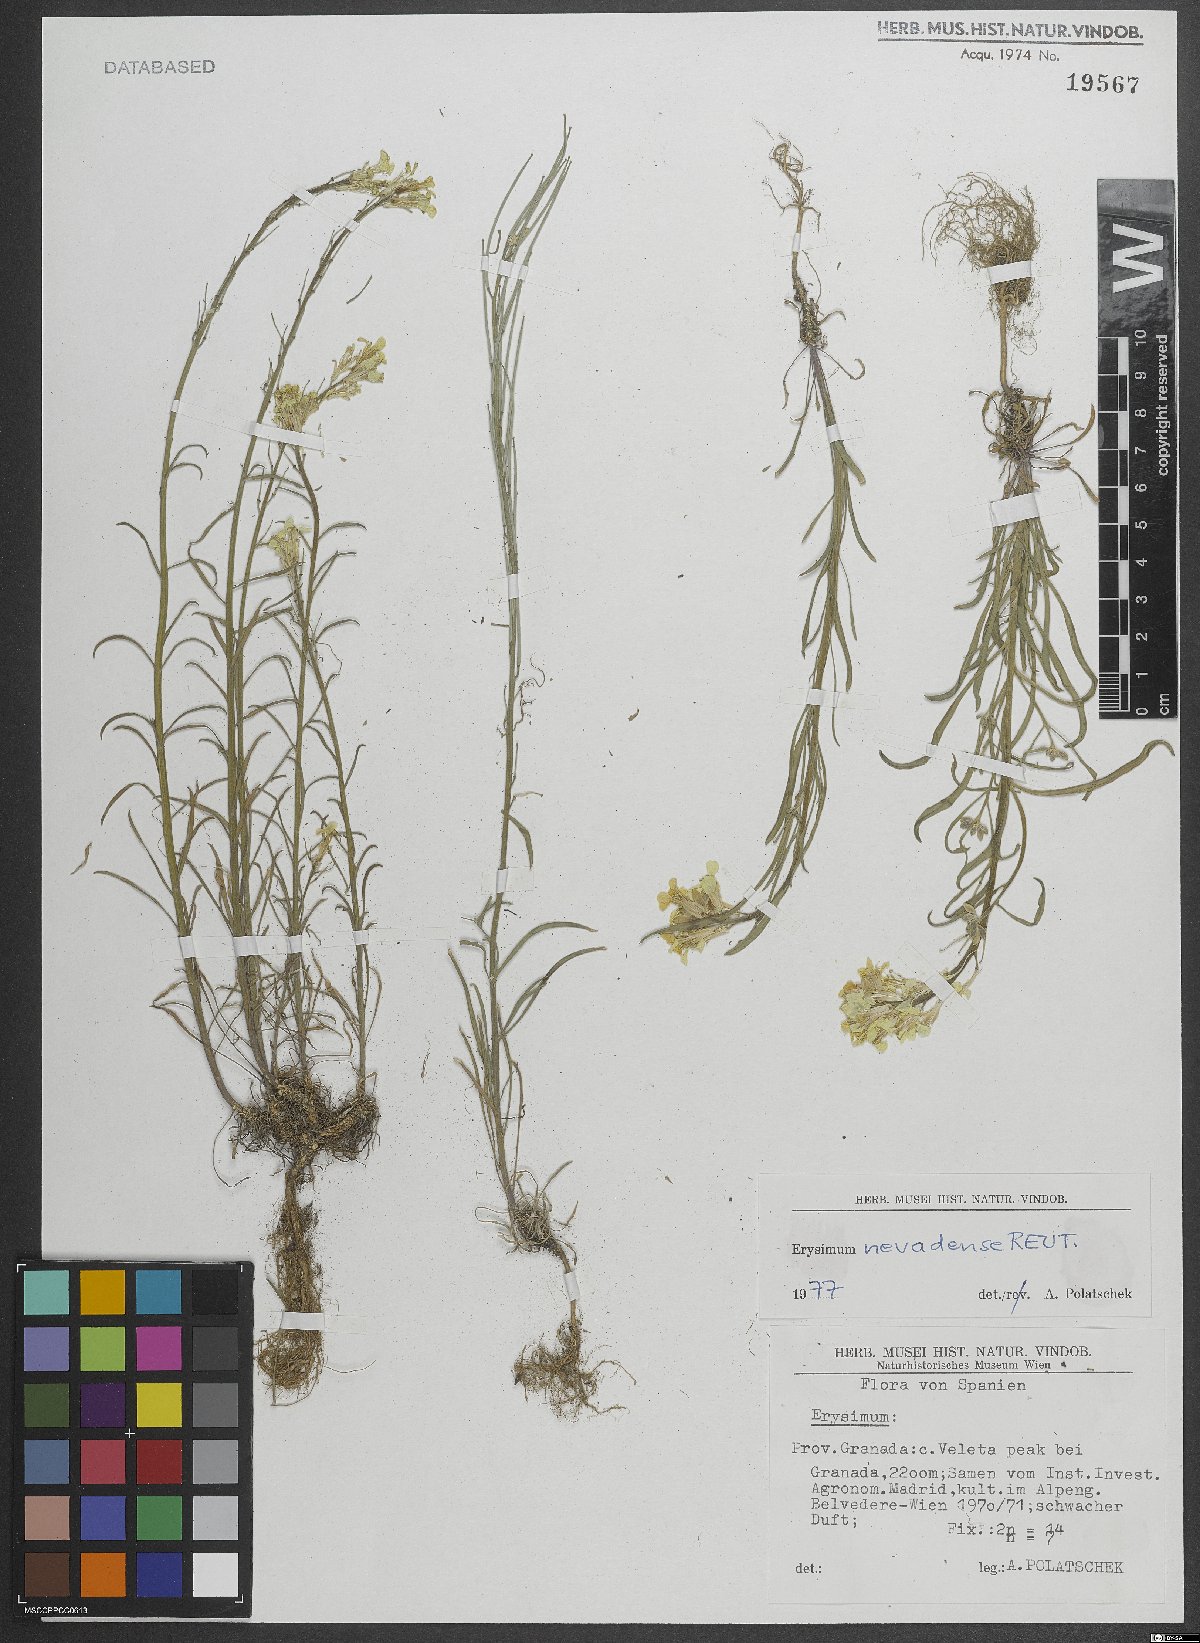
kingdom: Plantae
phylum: Tracheophyta
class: Magnoliopsida
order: Brassicales
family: Brassicaceae
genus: Erysimum
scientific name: Erysimum nevadense
